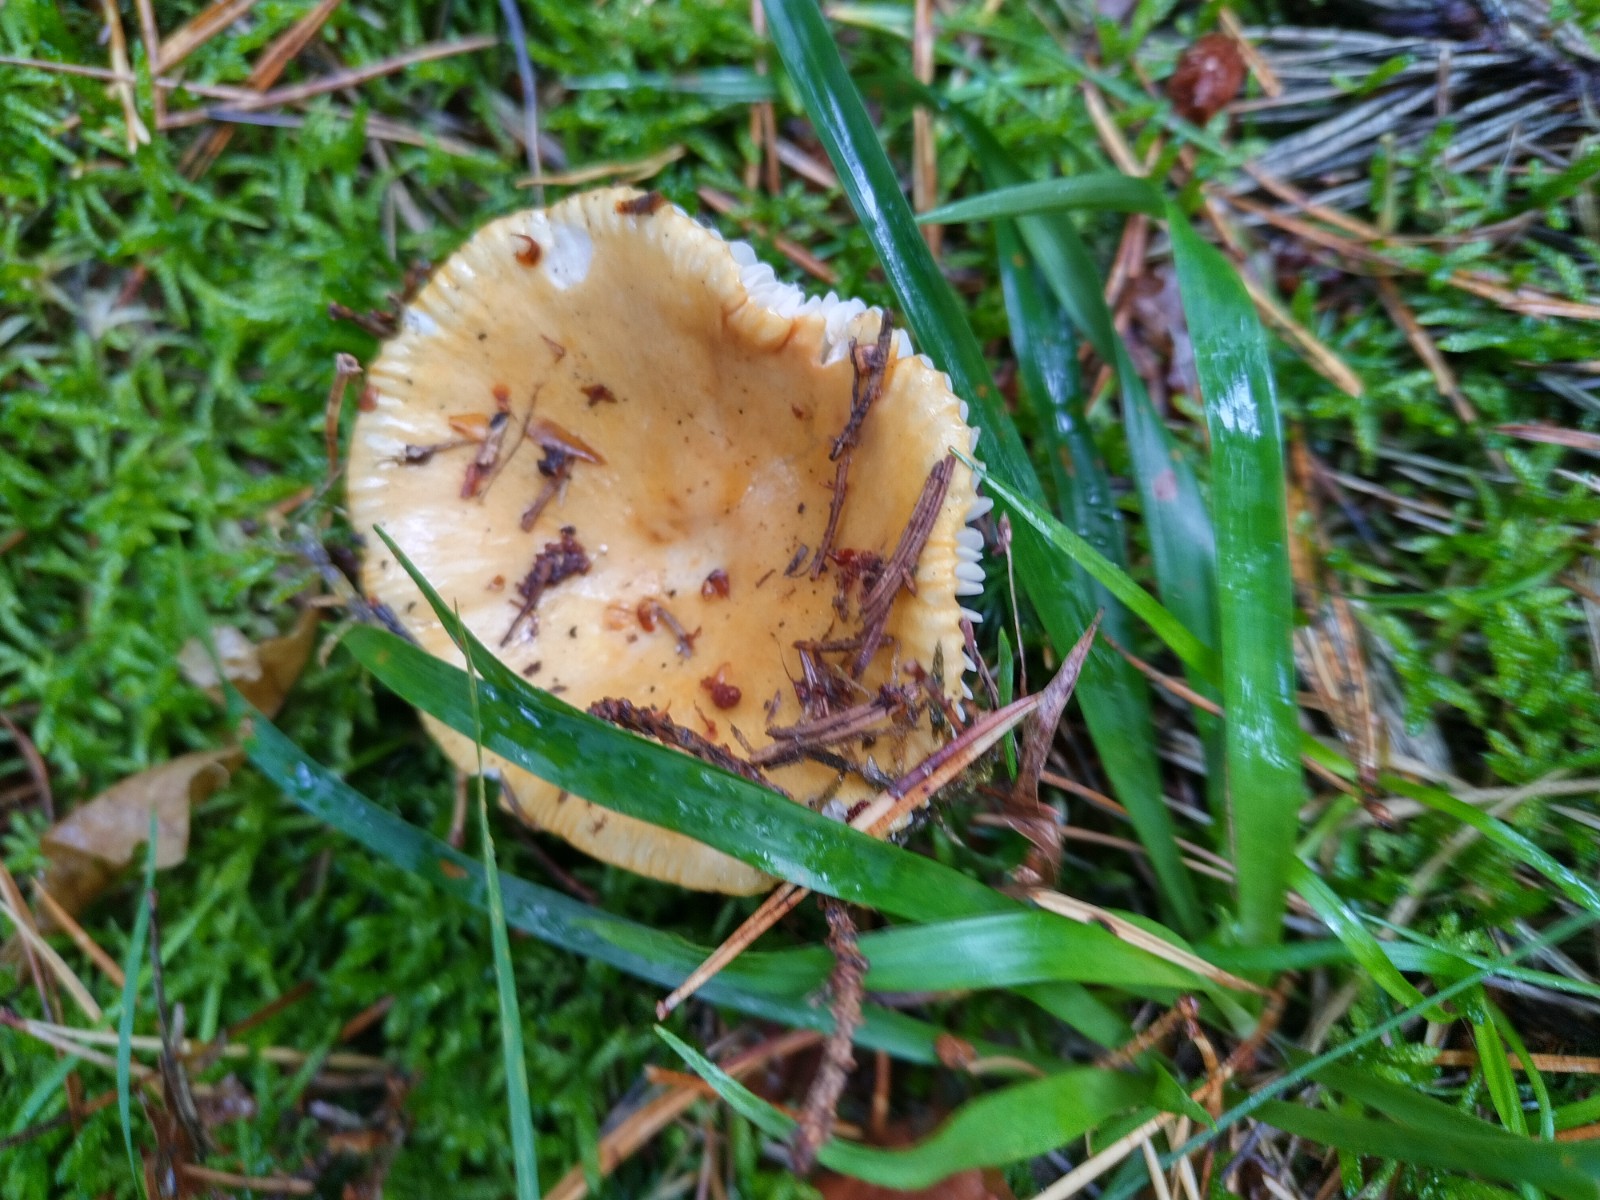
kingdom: Fungi
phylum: Basidiomycota
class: Agaricomycetes
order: Russulales
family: Russulaceae
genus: Russula
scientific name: Russula ochroleuca
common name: okkergul skørhat
